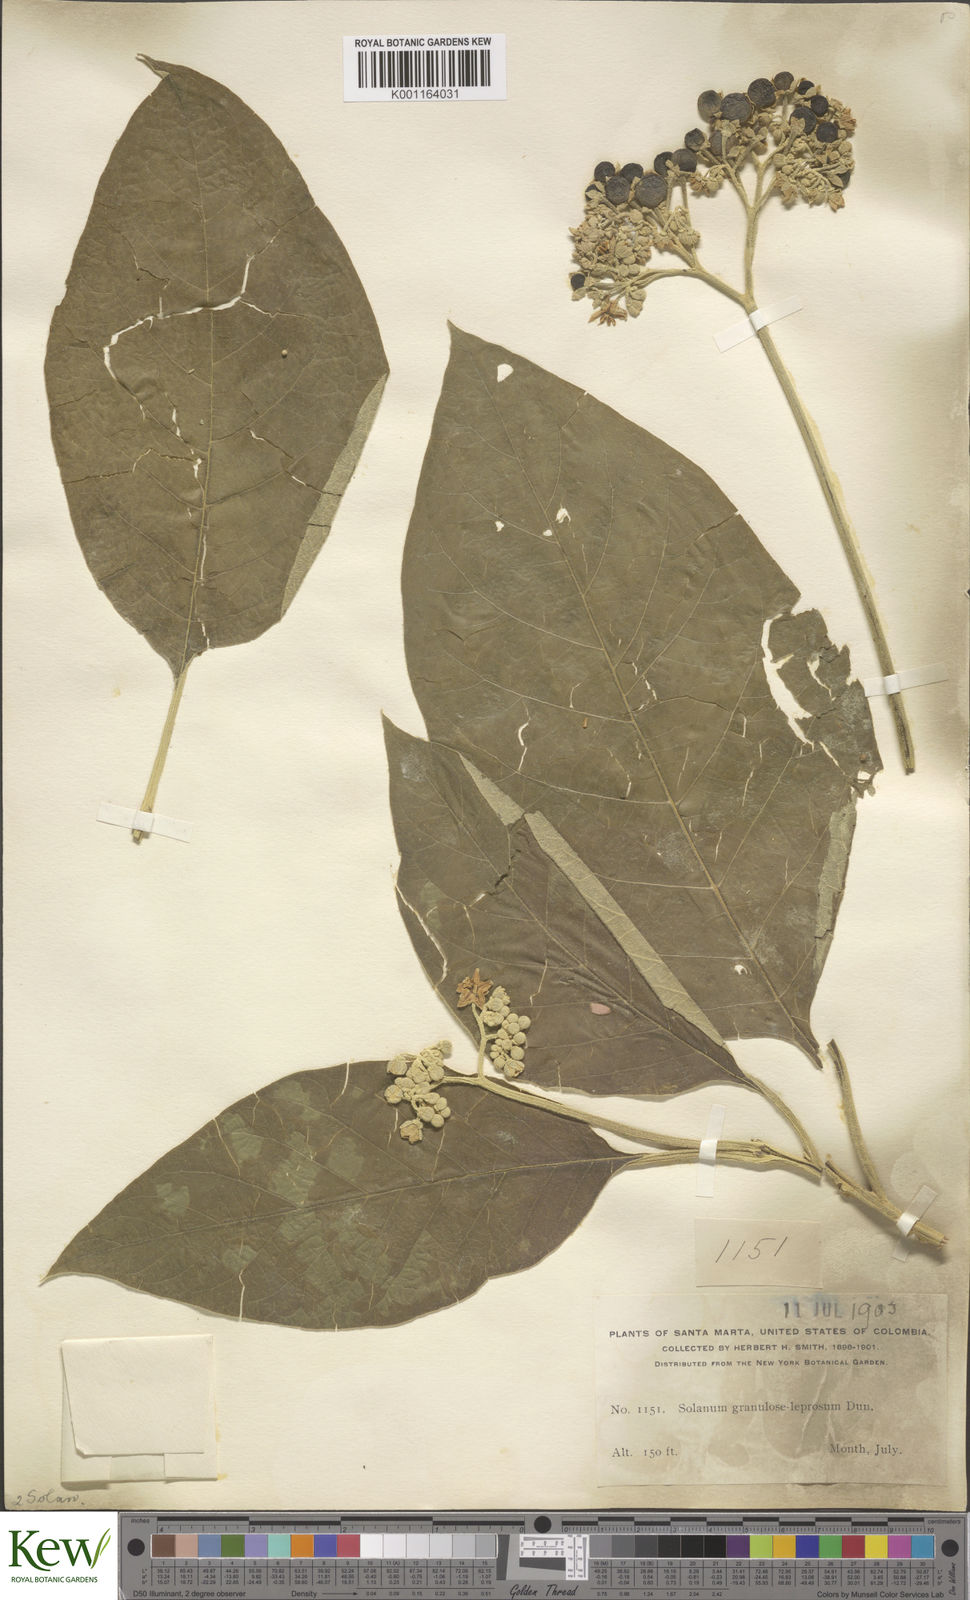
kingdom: Plantae
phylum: Tracheophyta
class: Magnoliopsida
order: Solanales
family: Solanaceae
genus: Solanum
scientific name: Solanum granulosoleprosum
